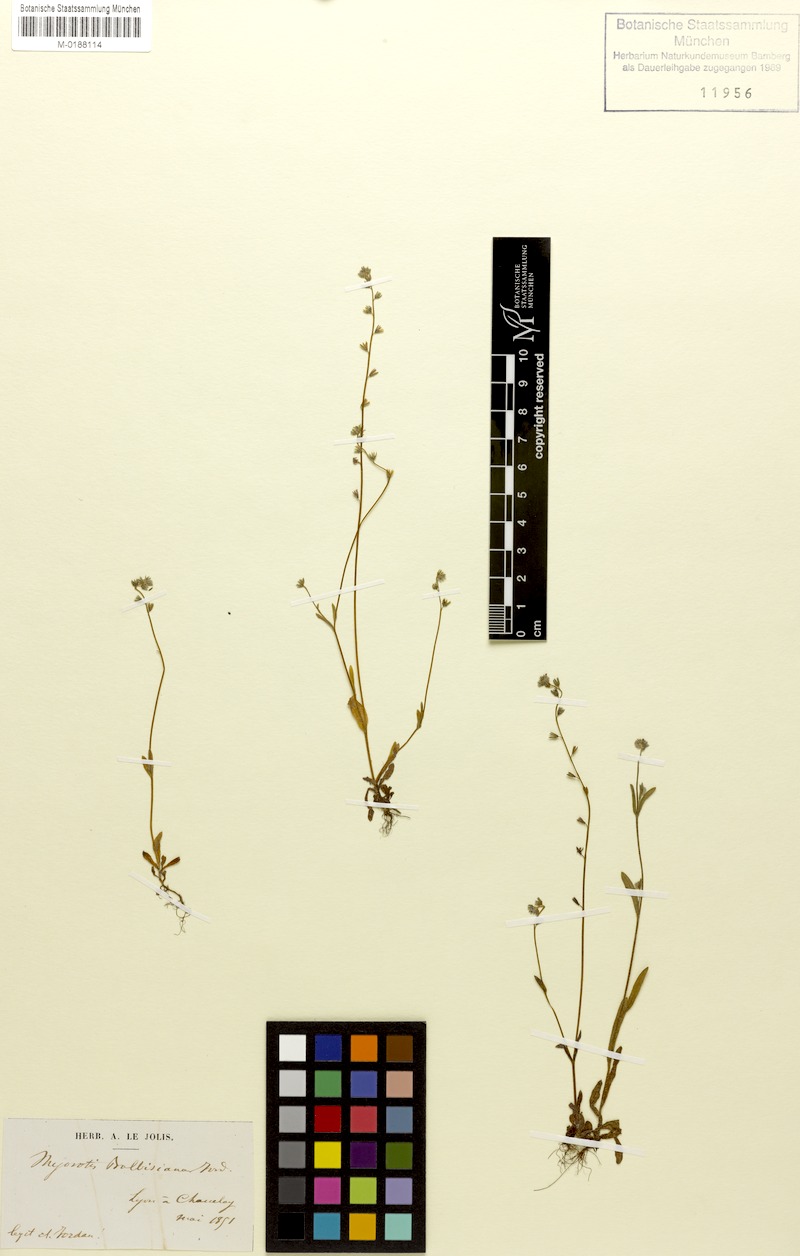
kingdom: Plantae
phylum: Tracheophyta
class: Magnoliopsida
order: Boraginales
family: Boraginaceae
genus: Myosotis
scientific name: Myosotis balbisiana
